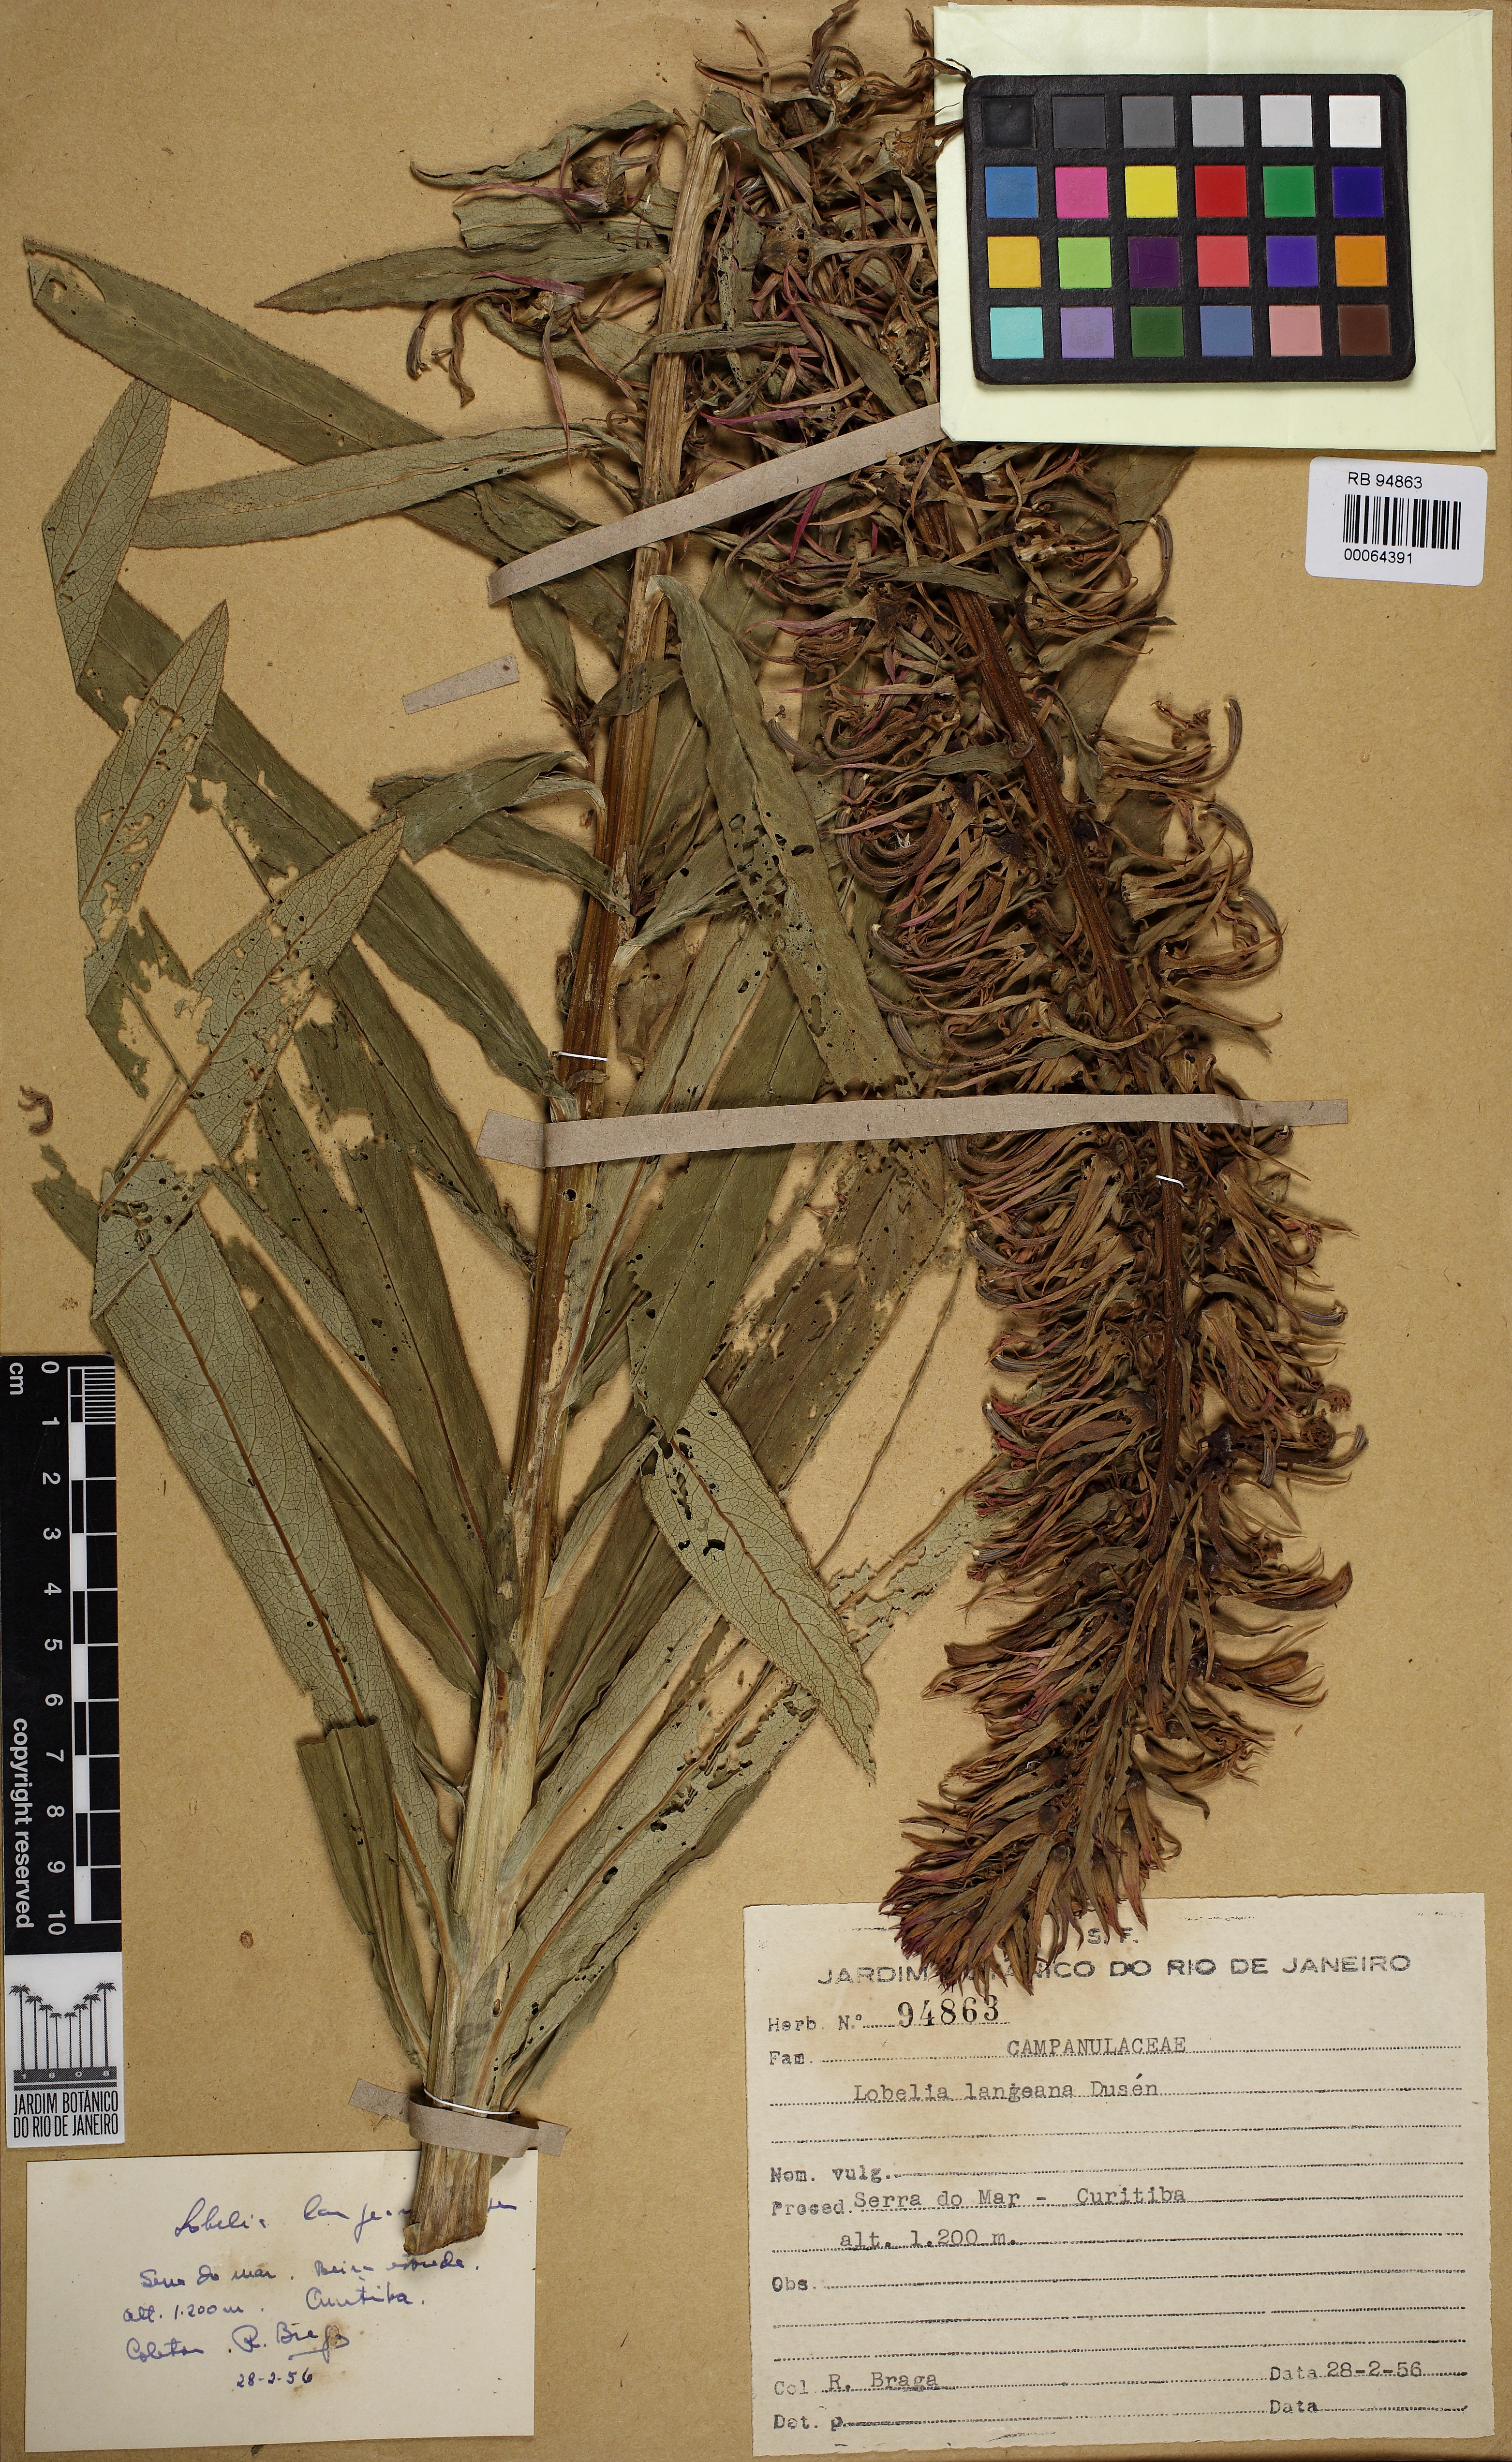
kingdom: Plantae
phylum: Tracheophyta
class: Magnoliopsida
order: Asterales
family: Campanulaceae
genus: Lobelia
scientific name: Lobelia langeana
